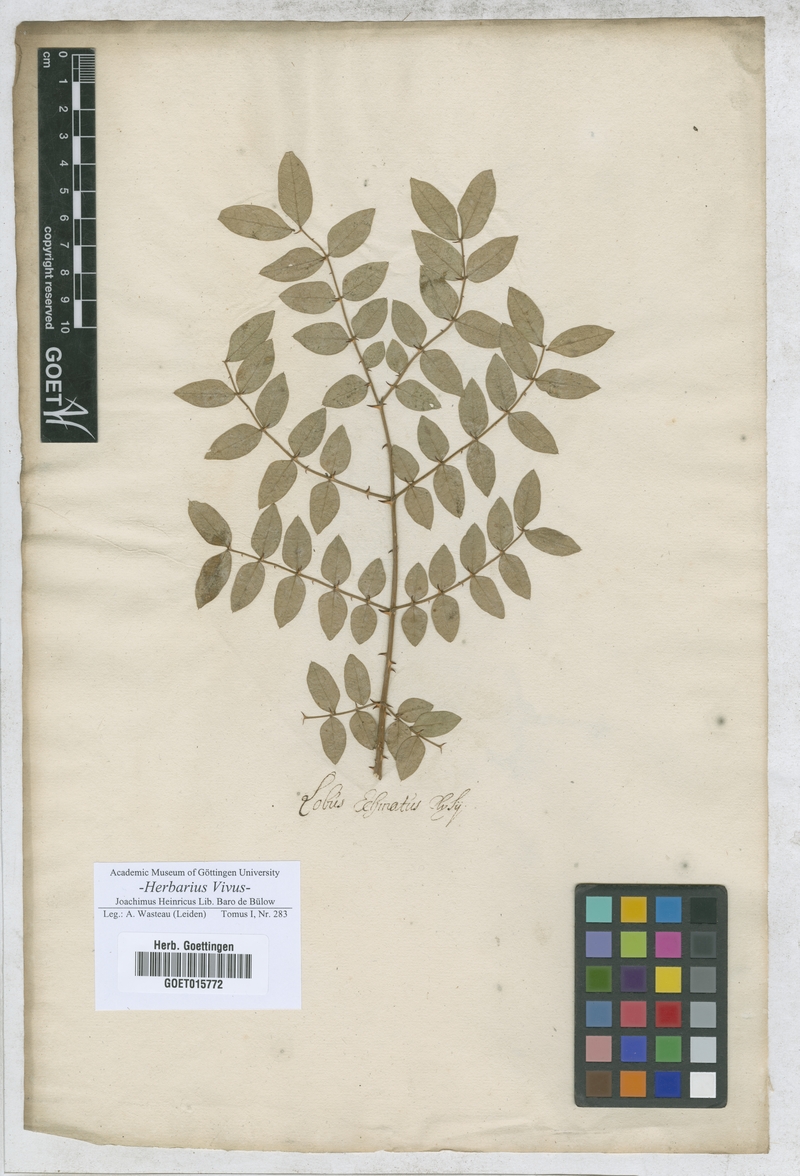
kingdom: Plantae
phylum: Tracheophyta
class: Magnoliopsida
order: Fabales
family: Fabaceae
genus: Acacia
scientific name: Acacia
